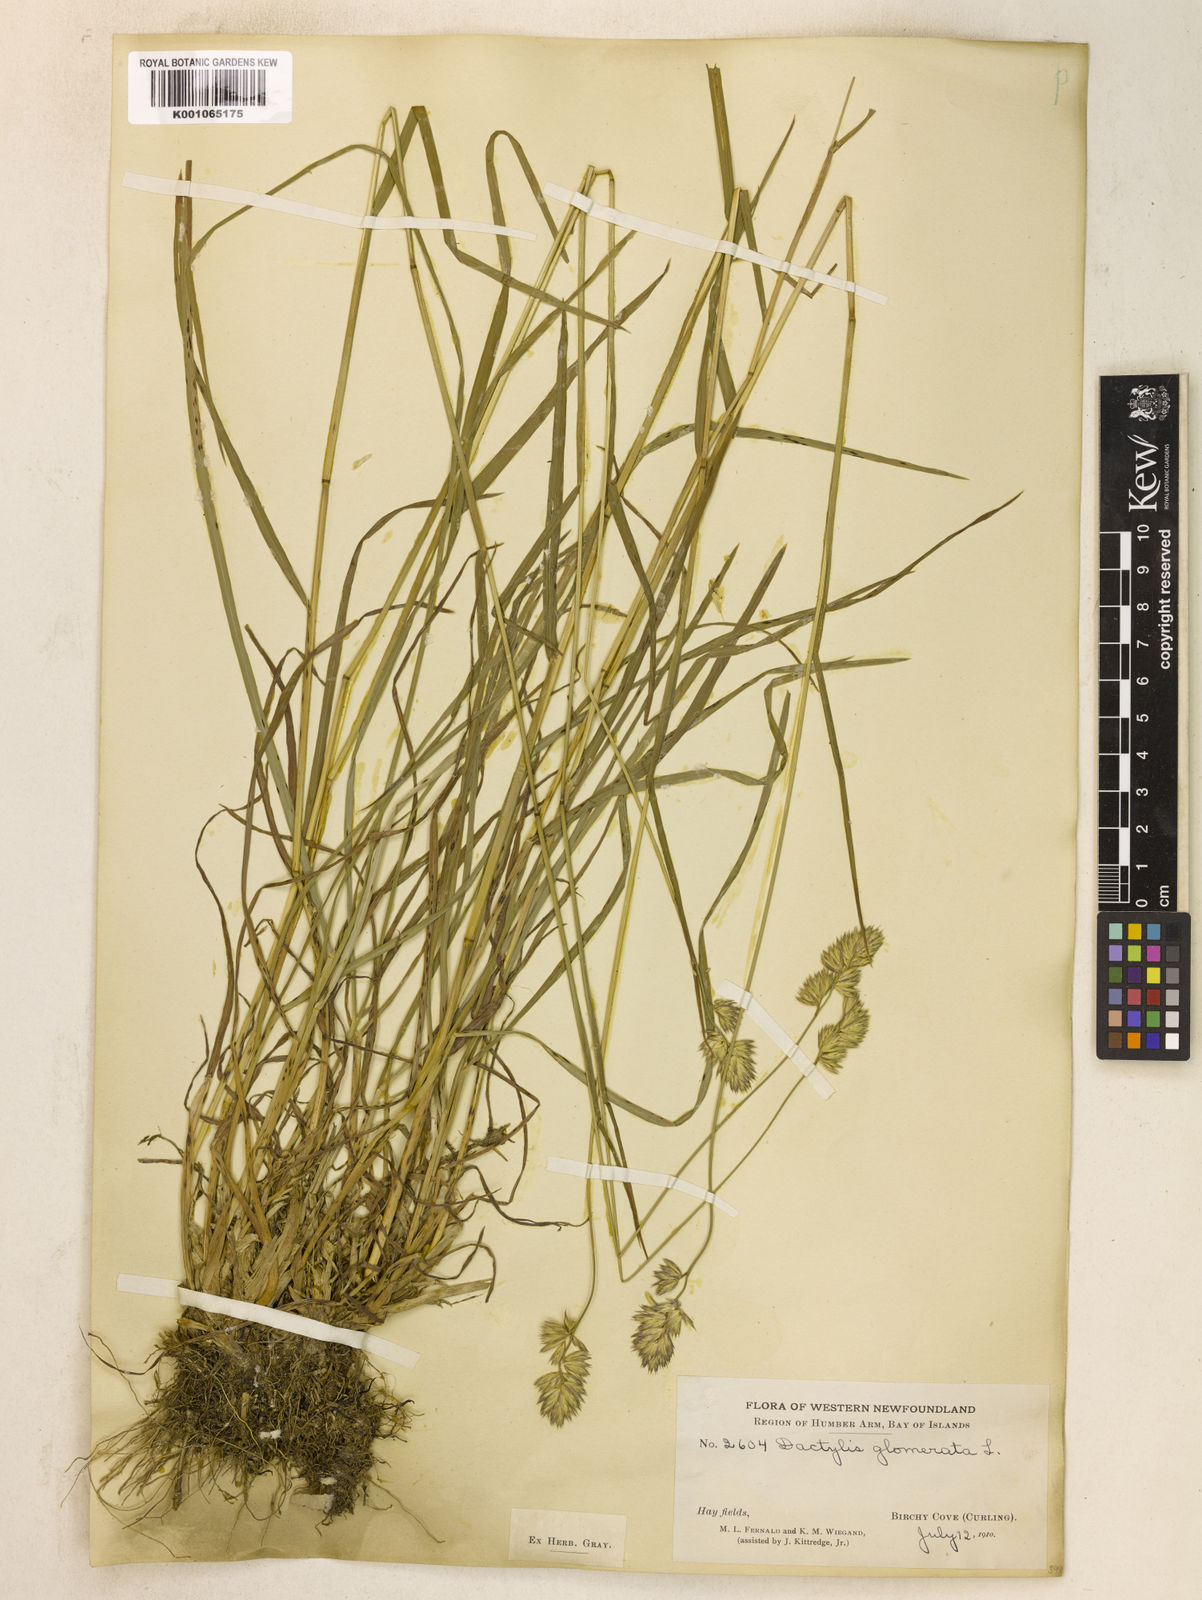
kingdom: Plantae
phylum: Tracheophyta
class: Liliopsida
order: Poales
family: Poaceae
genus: Dactylis
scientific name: Dactylis glomerata
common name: Orchardgrass
